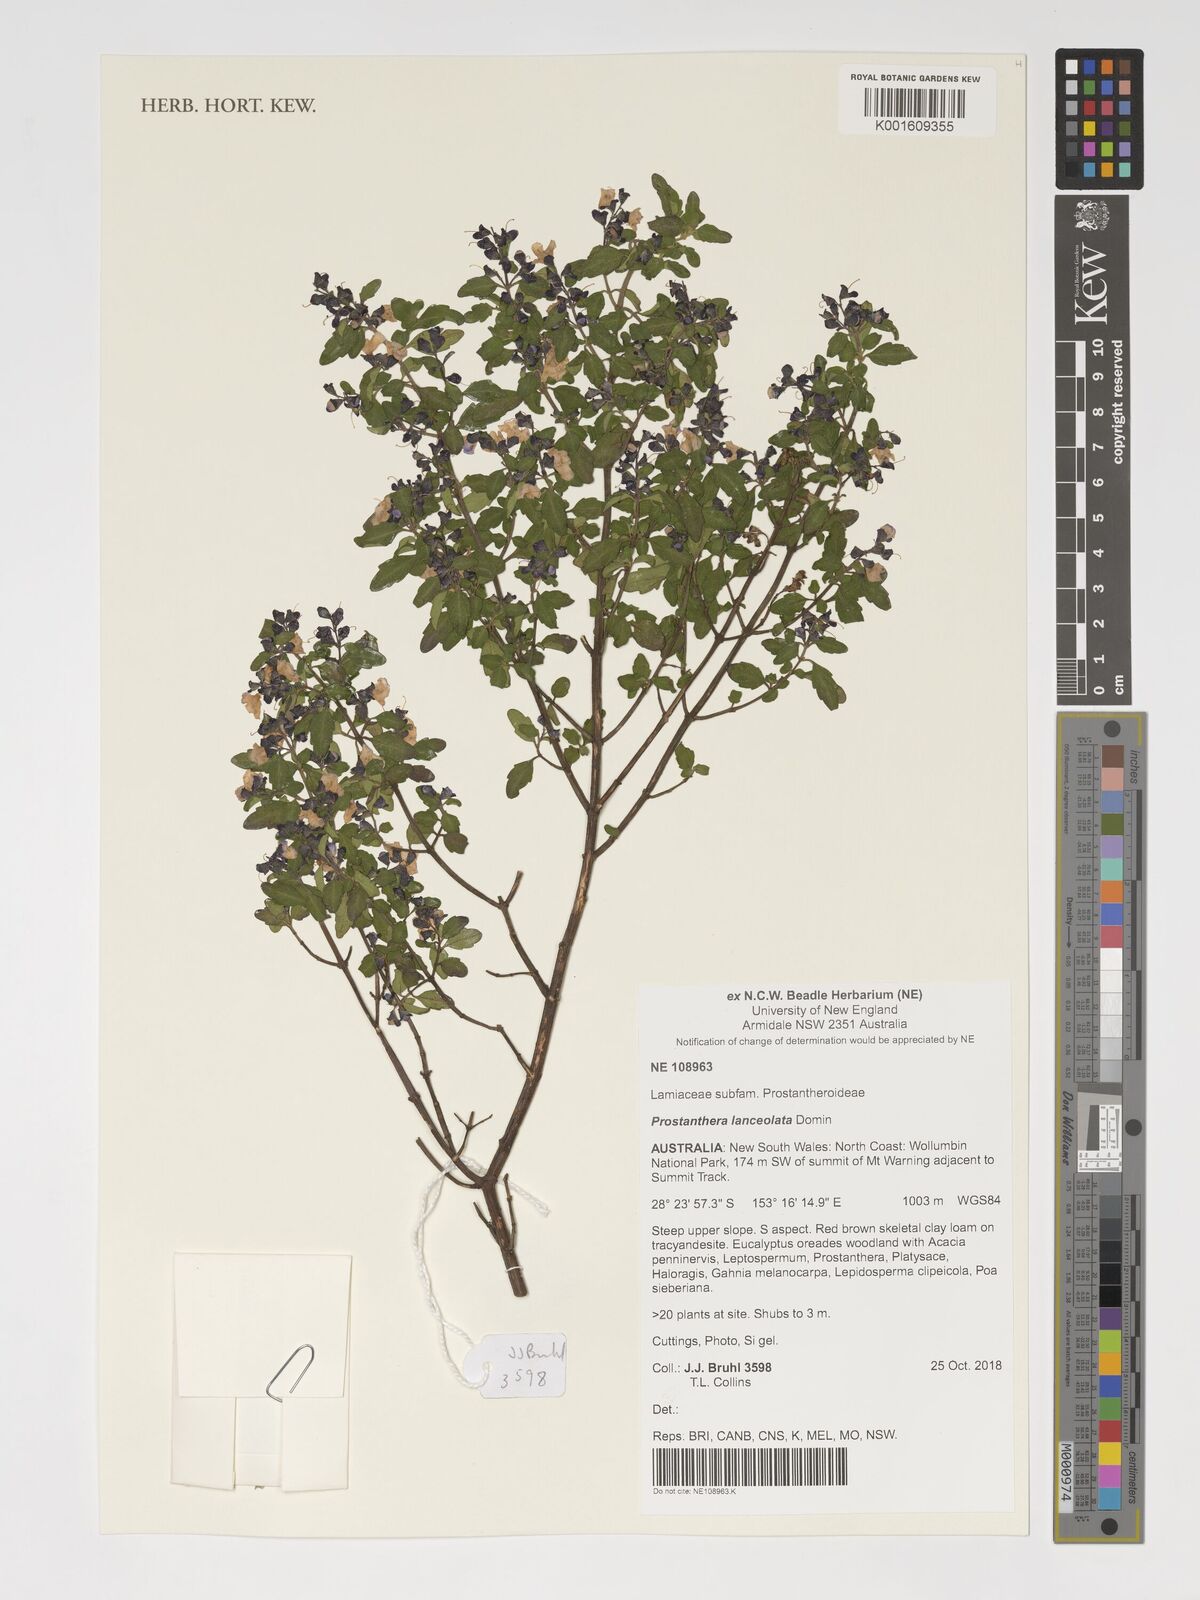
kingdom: Plantae
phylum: Tracheophyta
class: Magnoliopsida
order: Lamiales
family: Lamiaceae
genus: Prostanthera
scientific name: Prostanthera lanceolata
